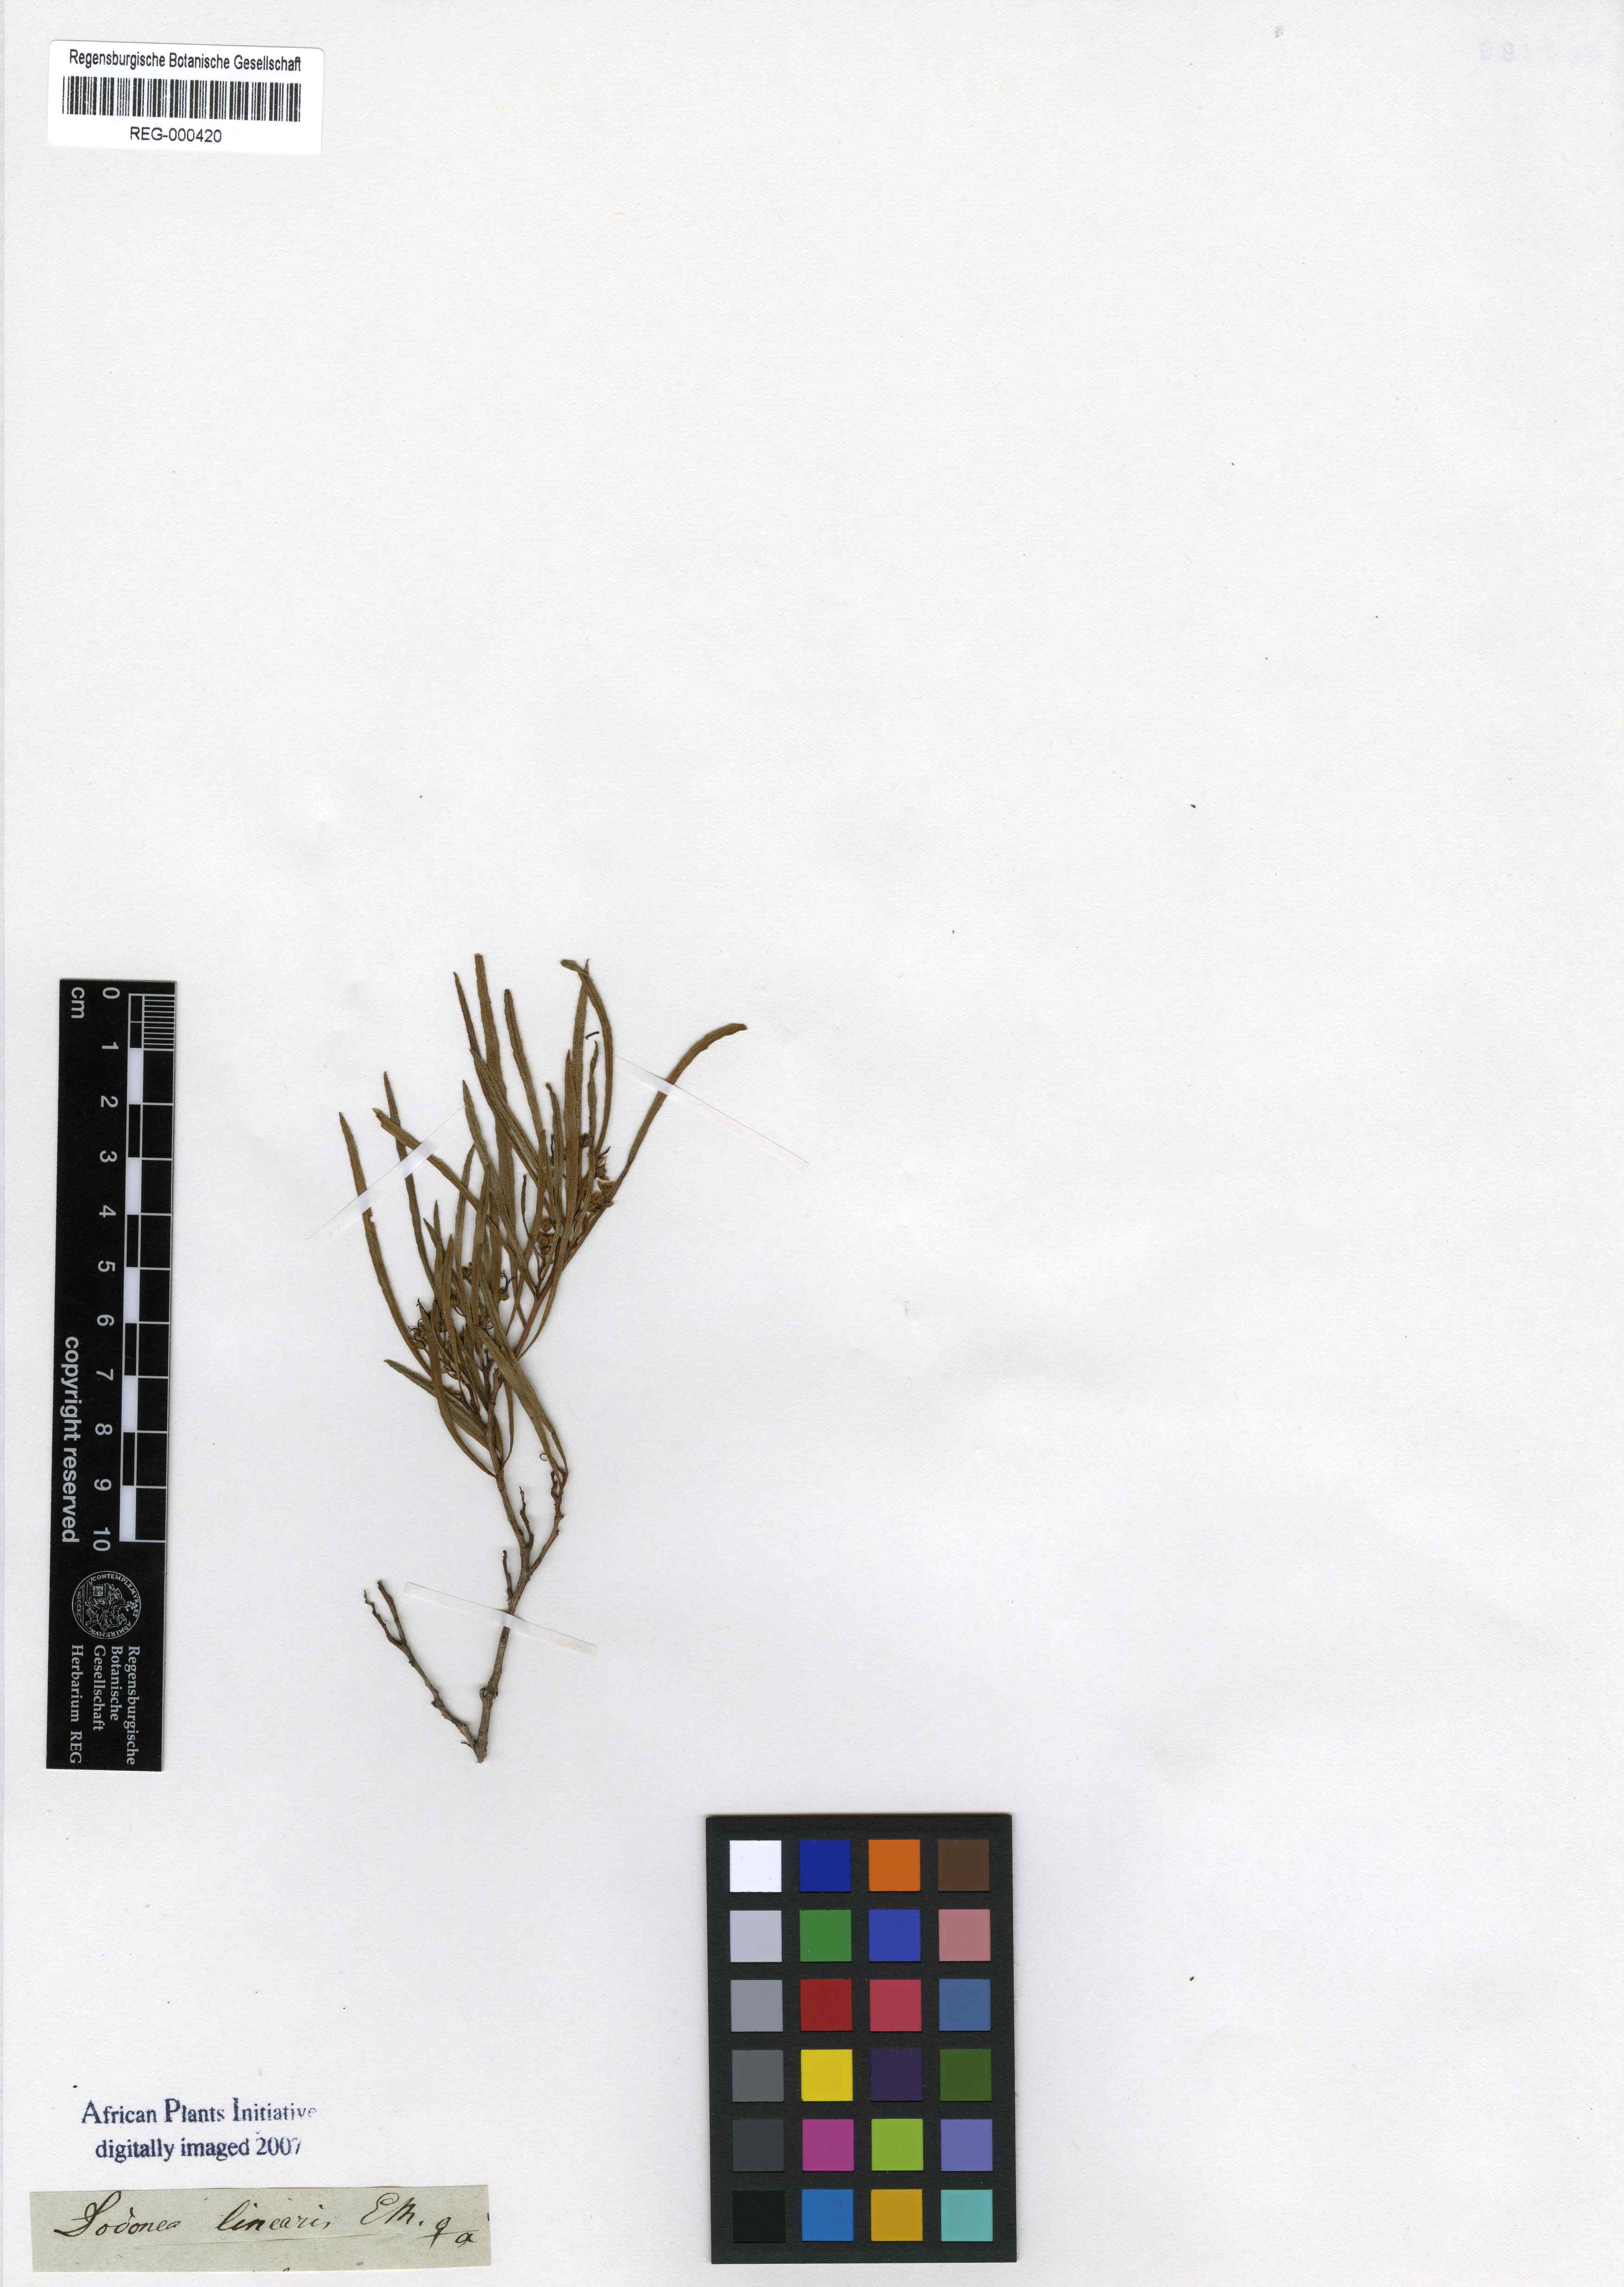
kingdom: Plantae
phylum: Tracheophyta
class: Magnoliopsida
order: Sapindales
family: Sapindaceae
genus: Dodonaea
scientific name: Dodonaea viscosa
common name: Hopbush
